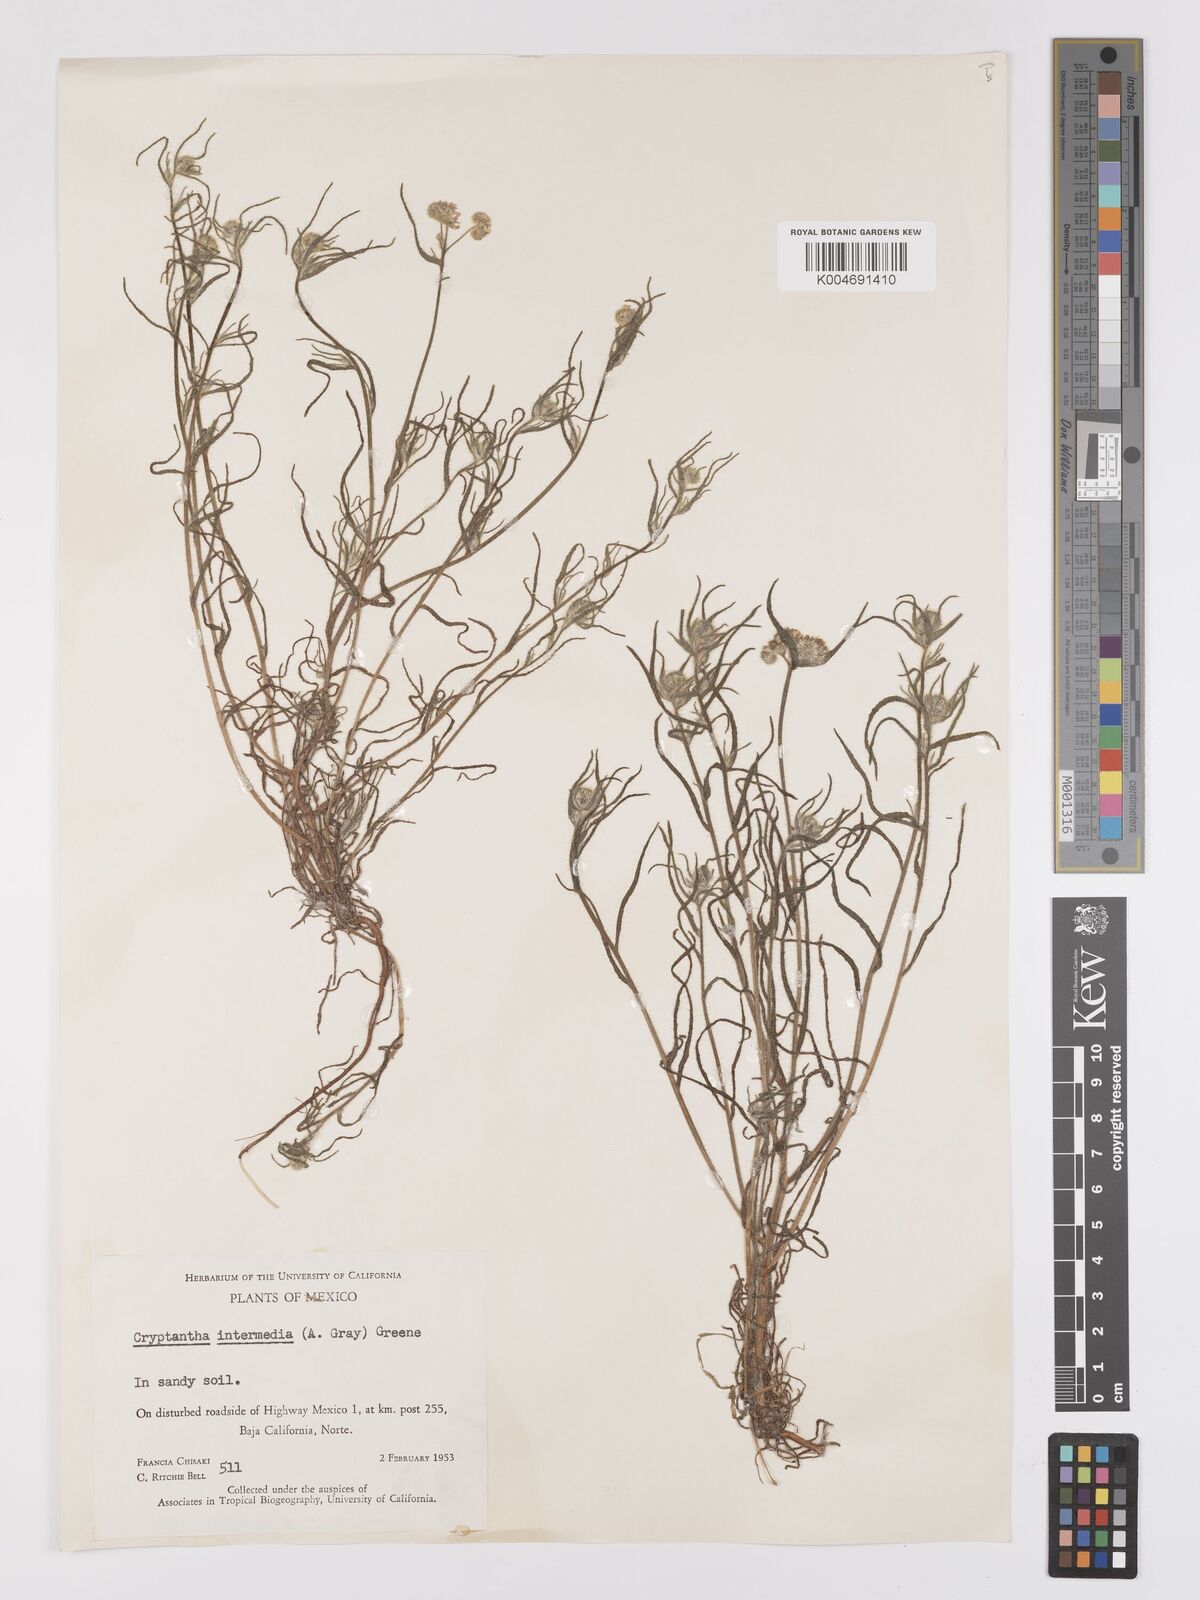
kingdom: Plantae
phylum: Tracheophyta
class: Magnoliopsida
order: Boraginales
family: Boraginaceae
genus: Cryptantha
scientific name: Cryptantha intermedia
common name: Clearwater cryptantha
